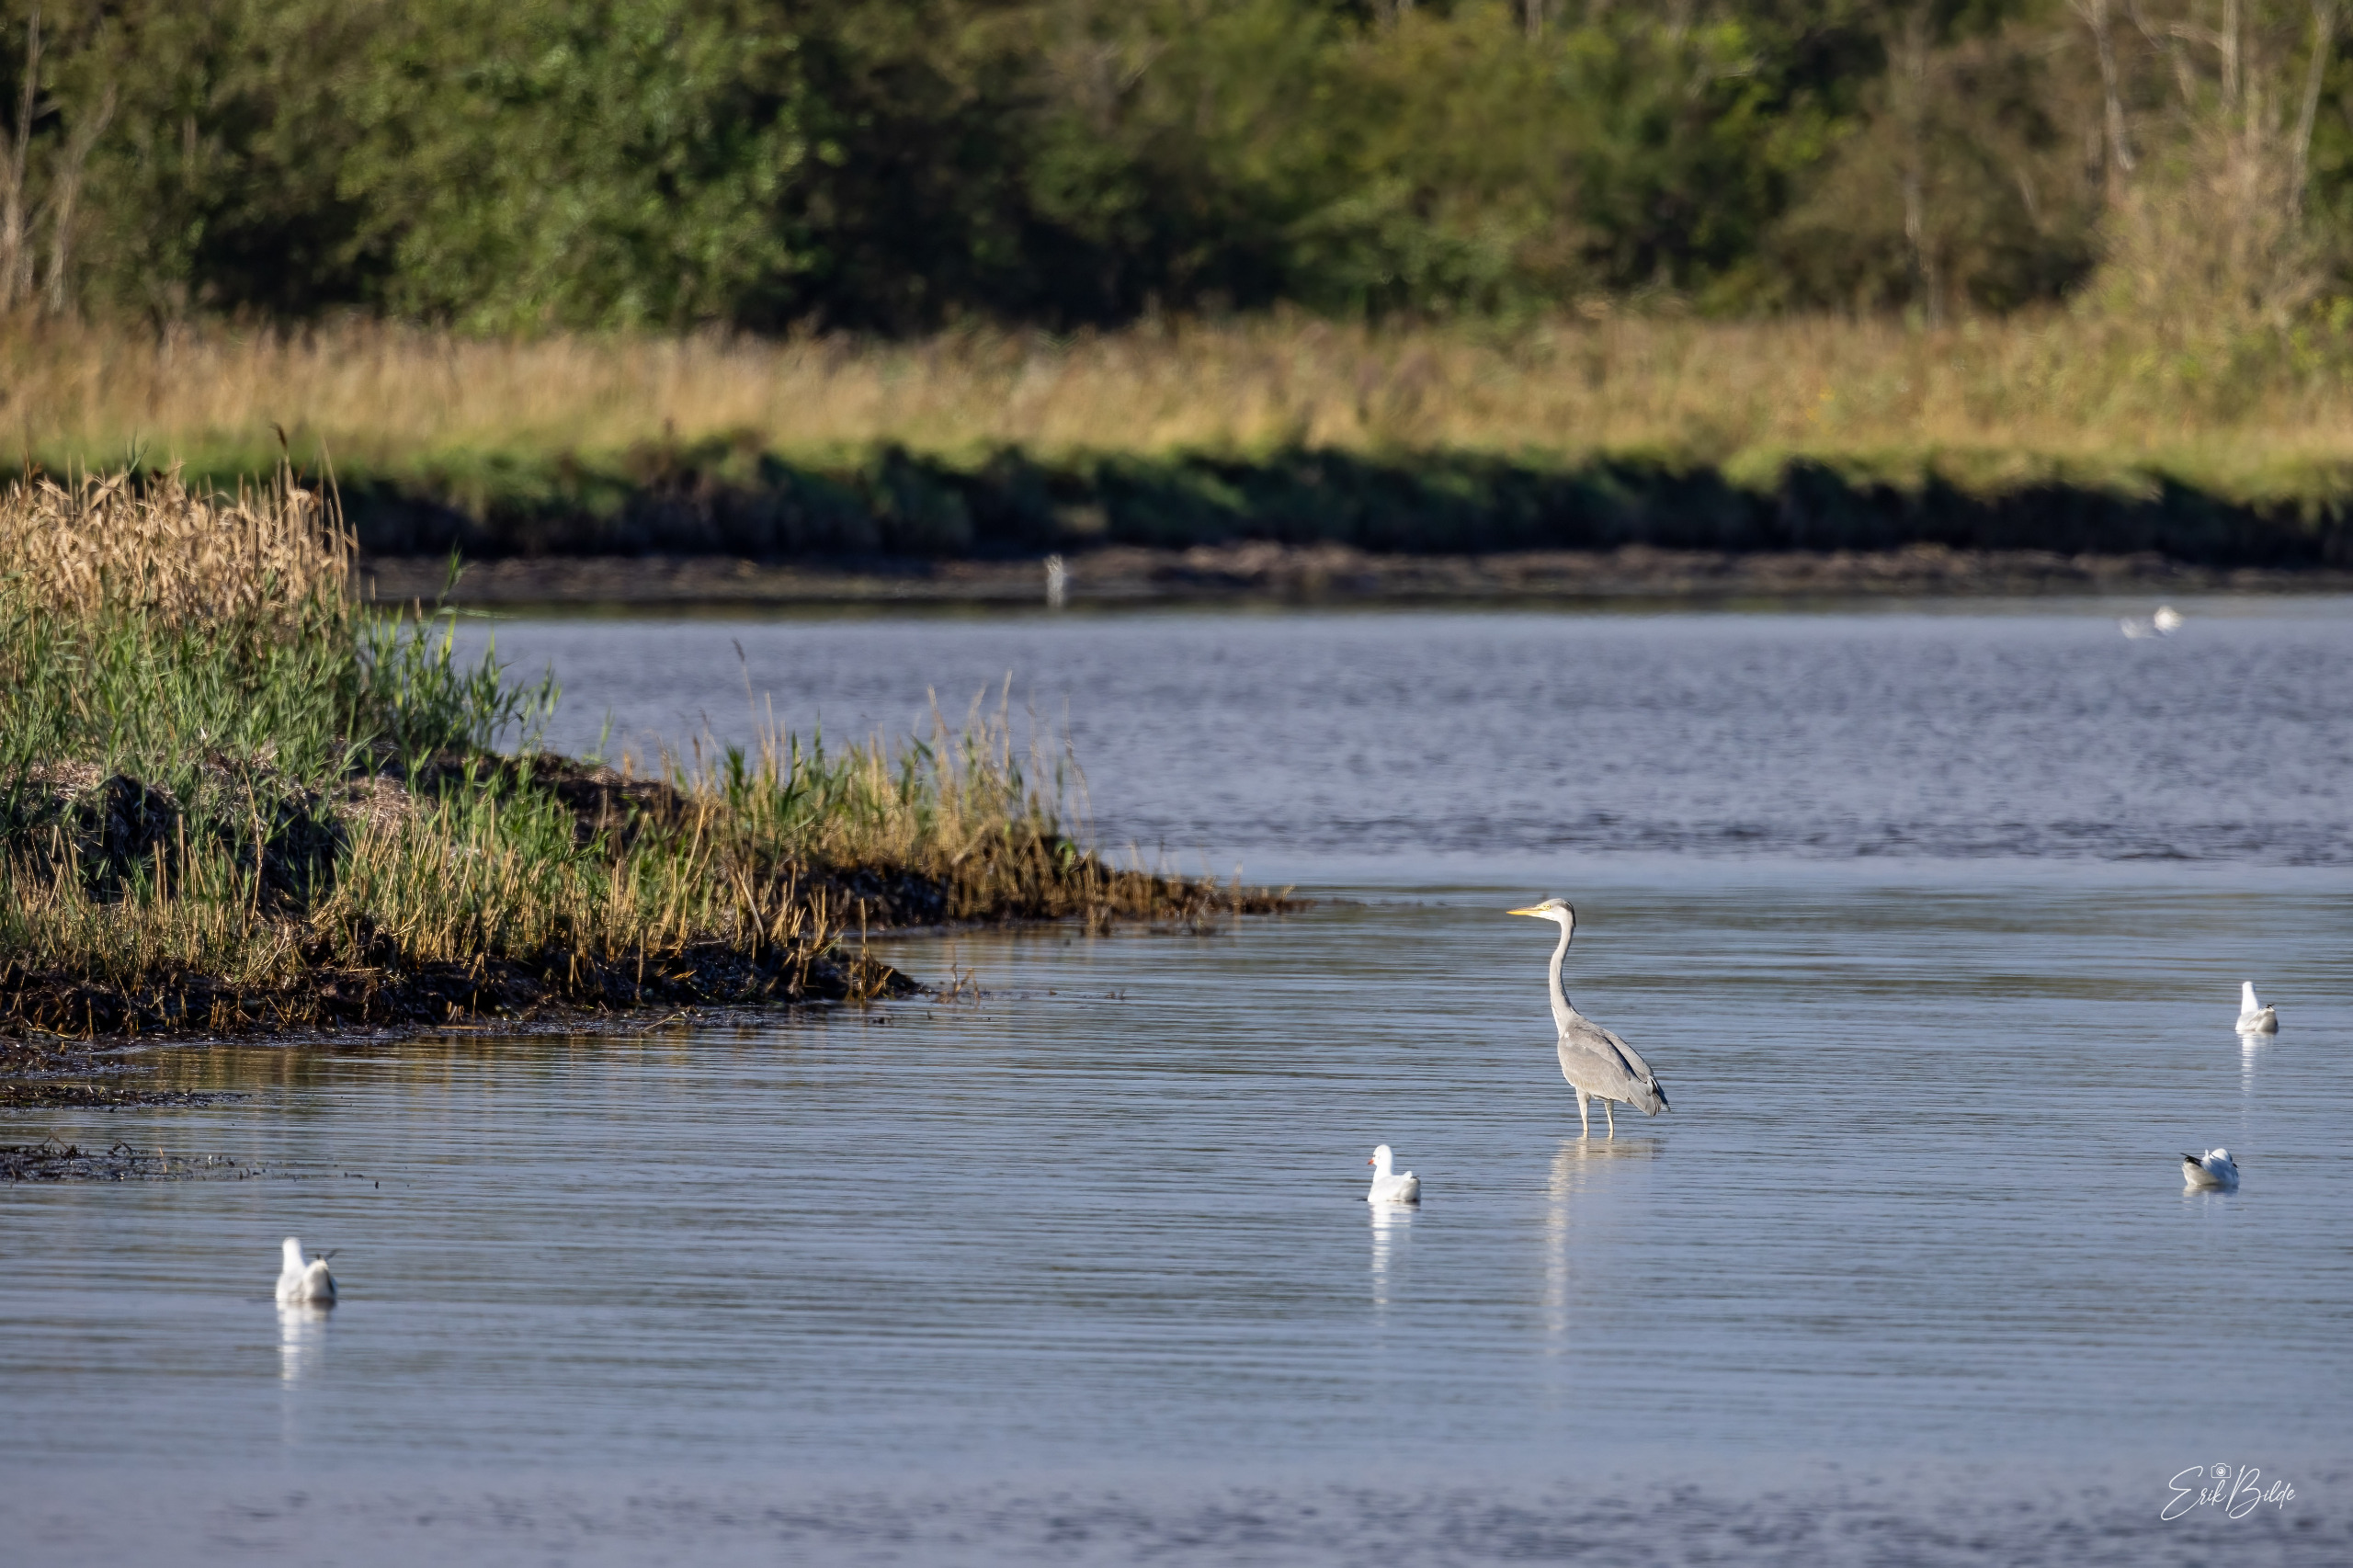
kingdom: Animalia
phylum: Chordata
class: Aves
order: Pelecaniformes
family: Ardeidae
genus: Ardea
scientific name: Ardea cinerea
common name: Fiskehejre
